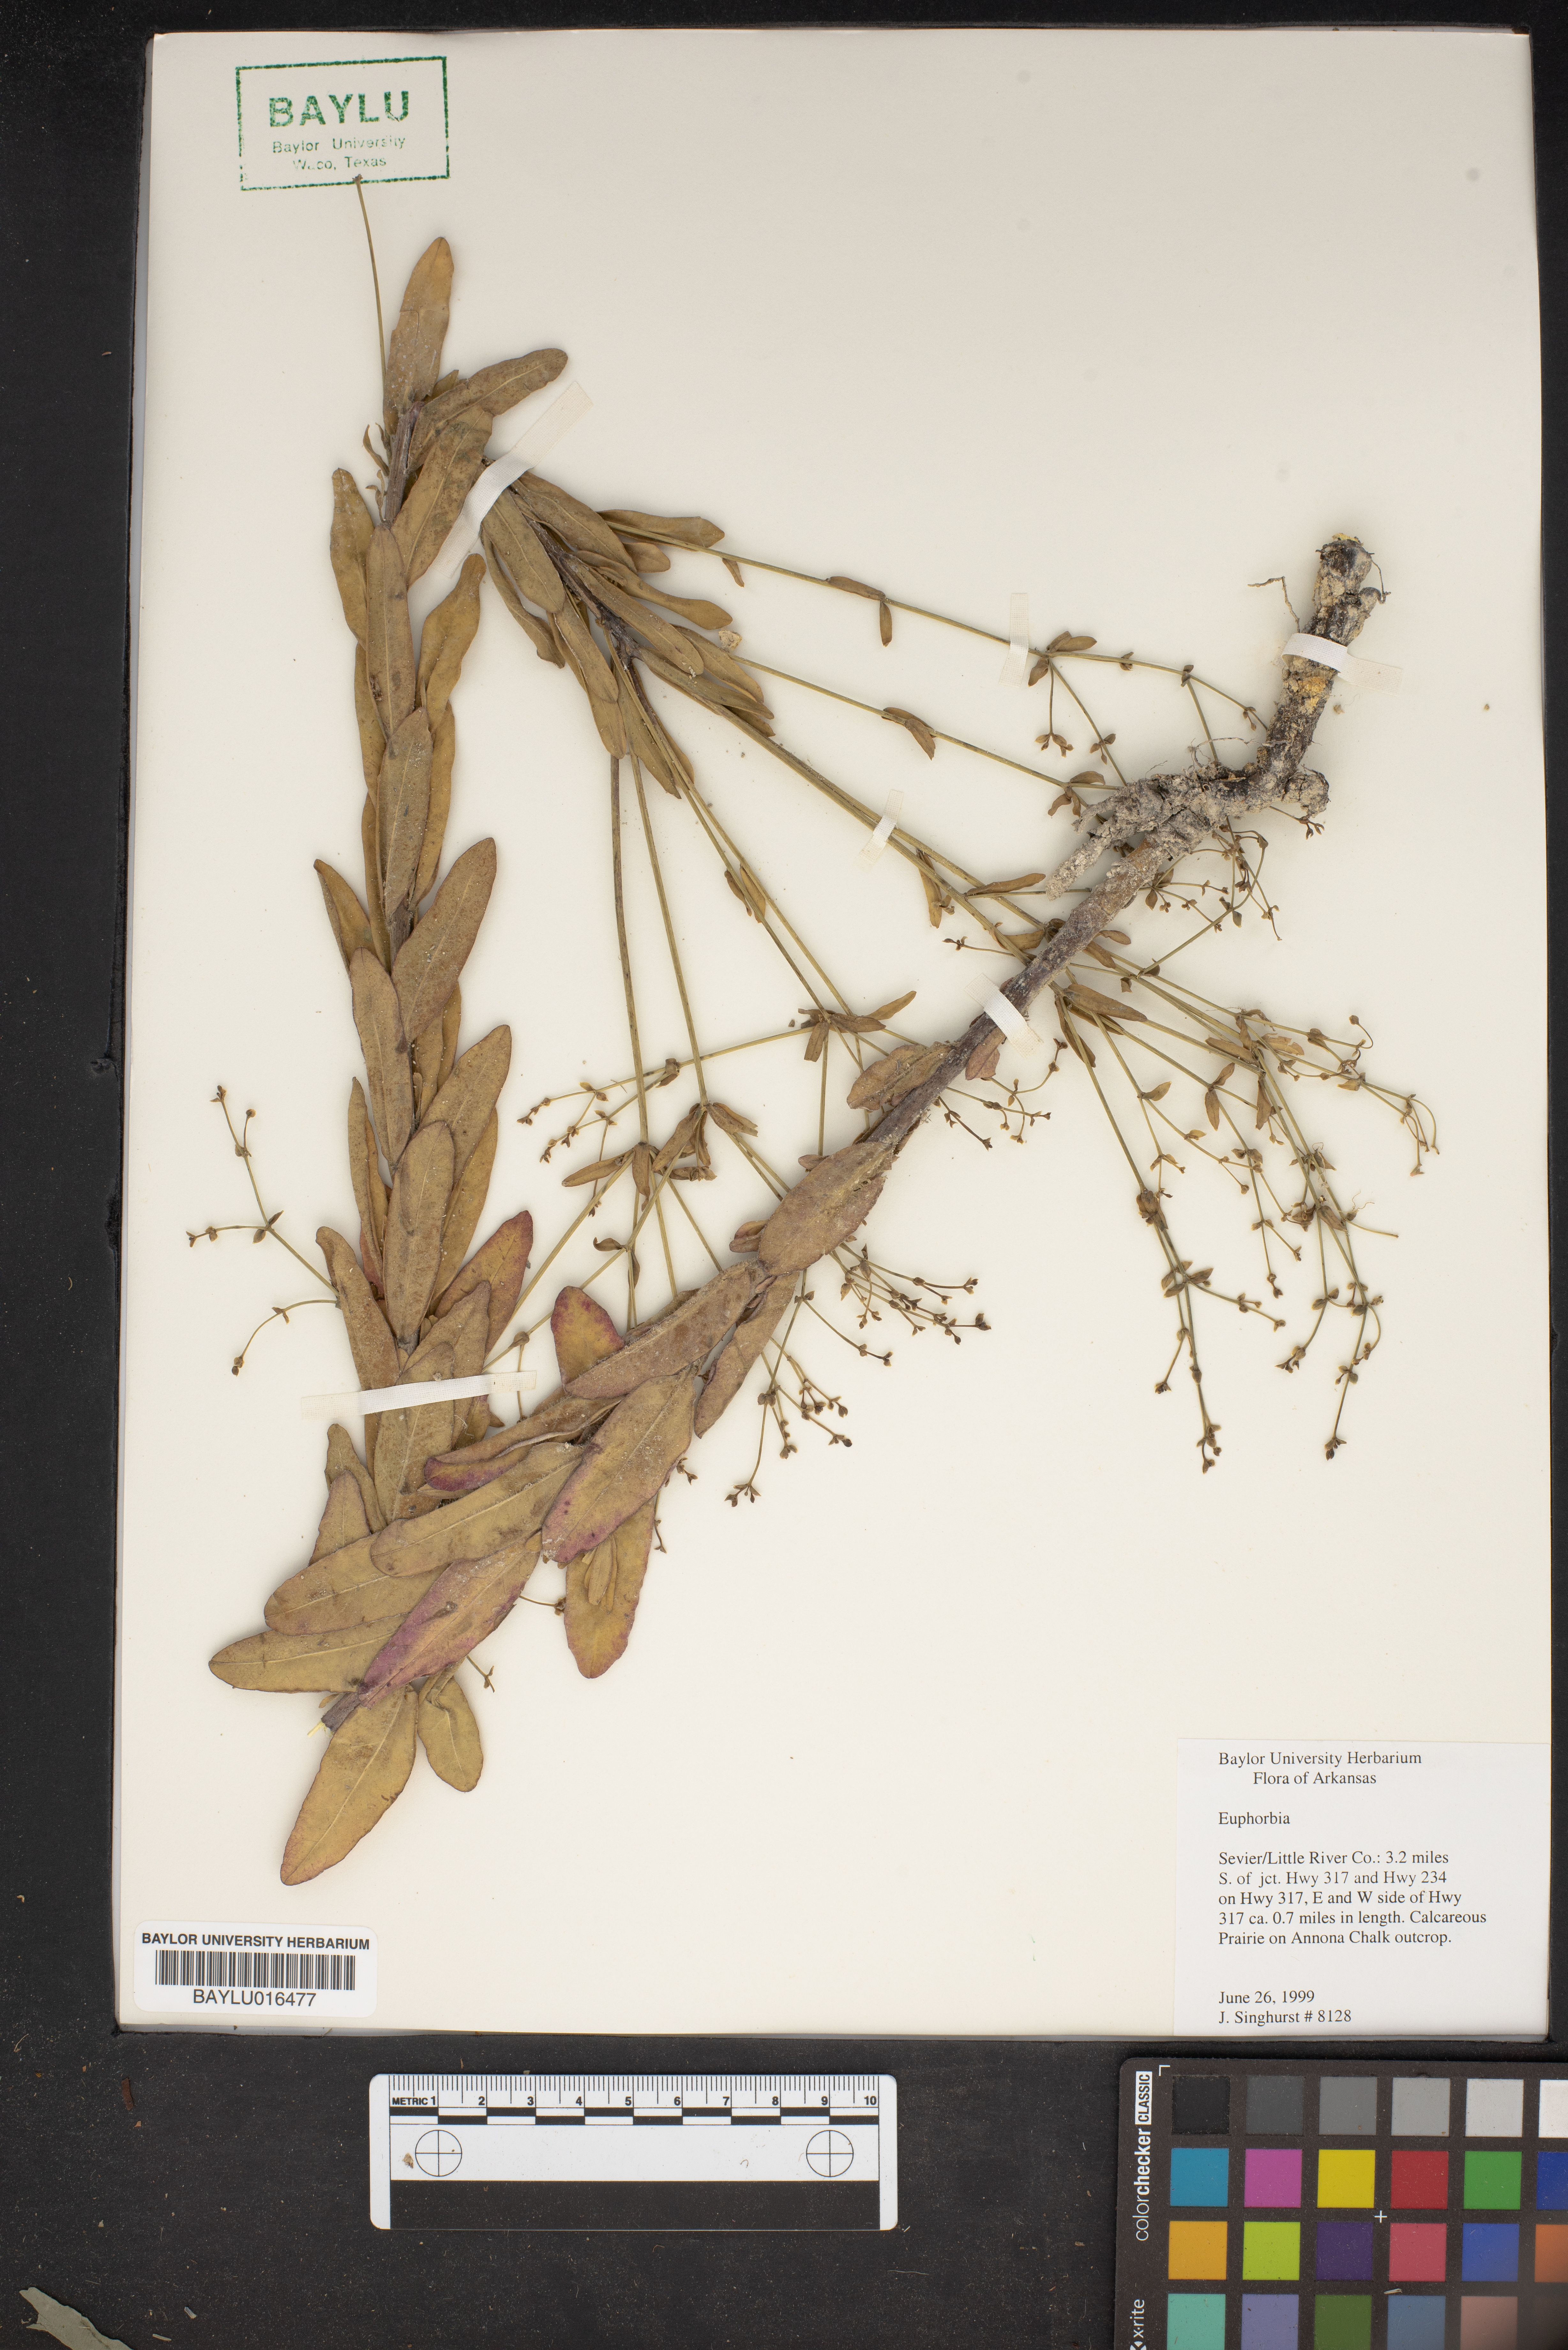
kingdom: Plantae
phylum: Tracheophyta
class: Magnoliopsida
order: Malpighiales
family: Euphorbiaceae
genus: Euphorbia
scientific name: Euphorbia
